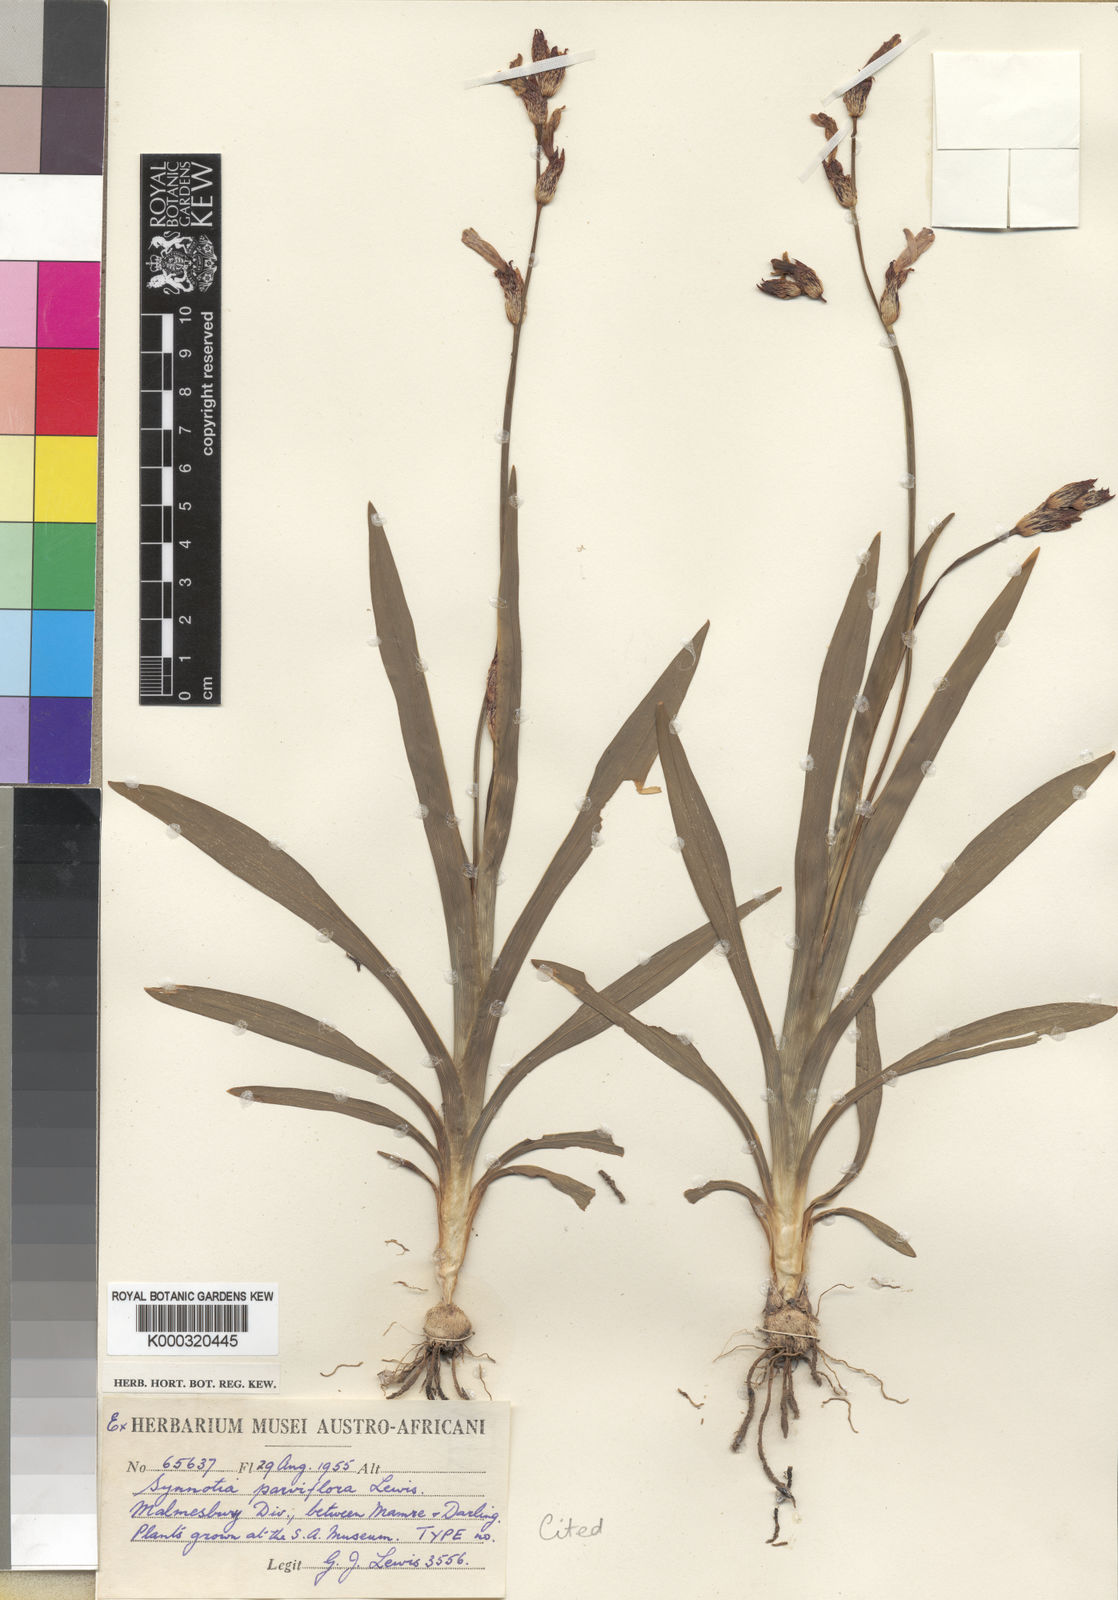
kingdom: Plantae
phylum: Tracheophyta
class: Liliopsida
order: Asparagales
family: Iridaceae
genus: Sparaxis
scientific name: Sparaxis parviflora
